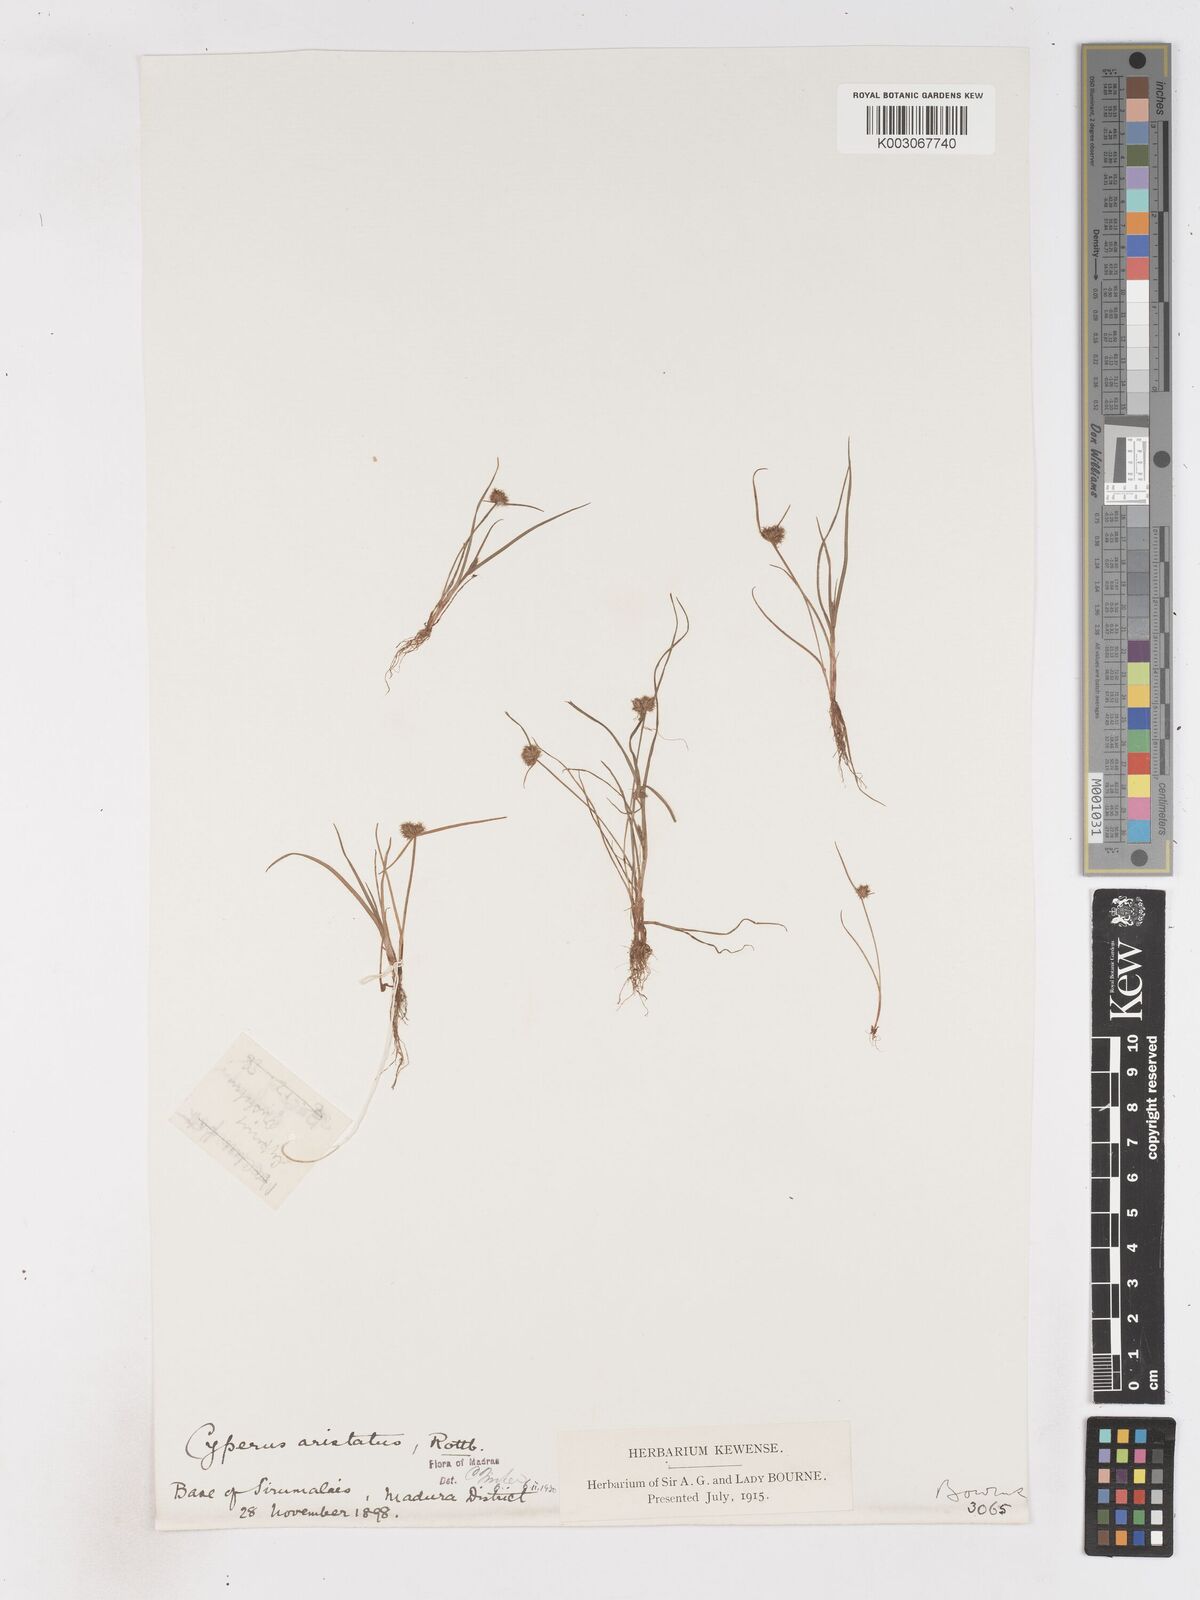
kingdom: Plantae
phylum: Tracheophyta
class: Liliopsida
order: Poales
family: Cyperaceae
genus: Cyperus
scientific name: Cyperus squarrosus
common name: Awned cyperus
